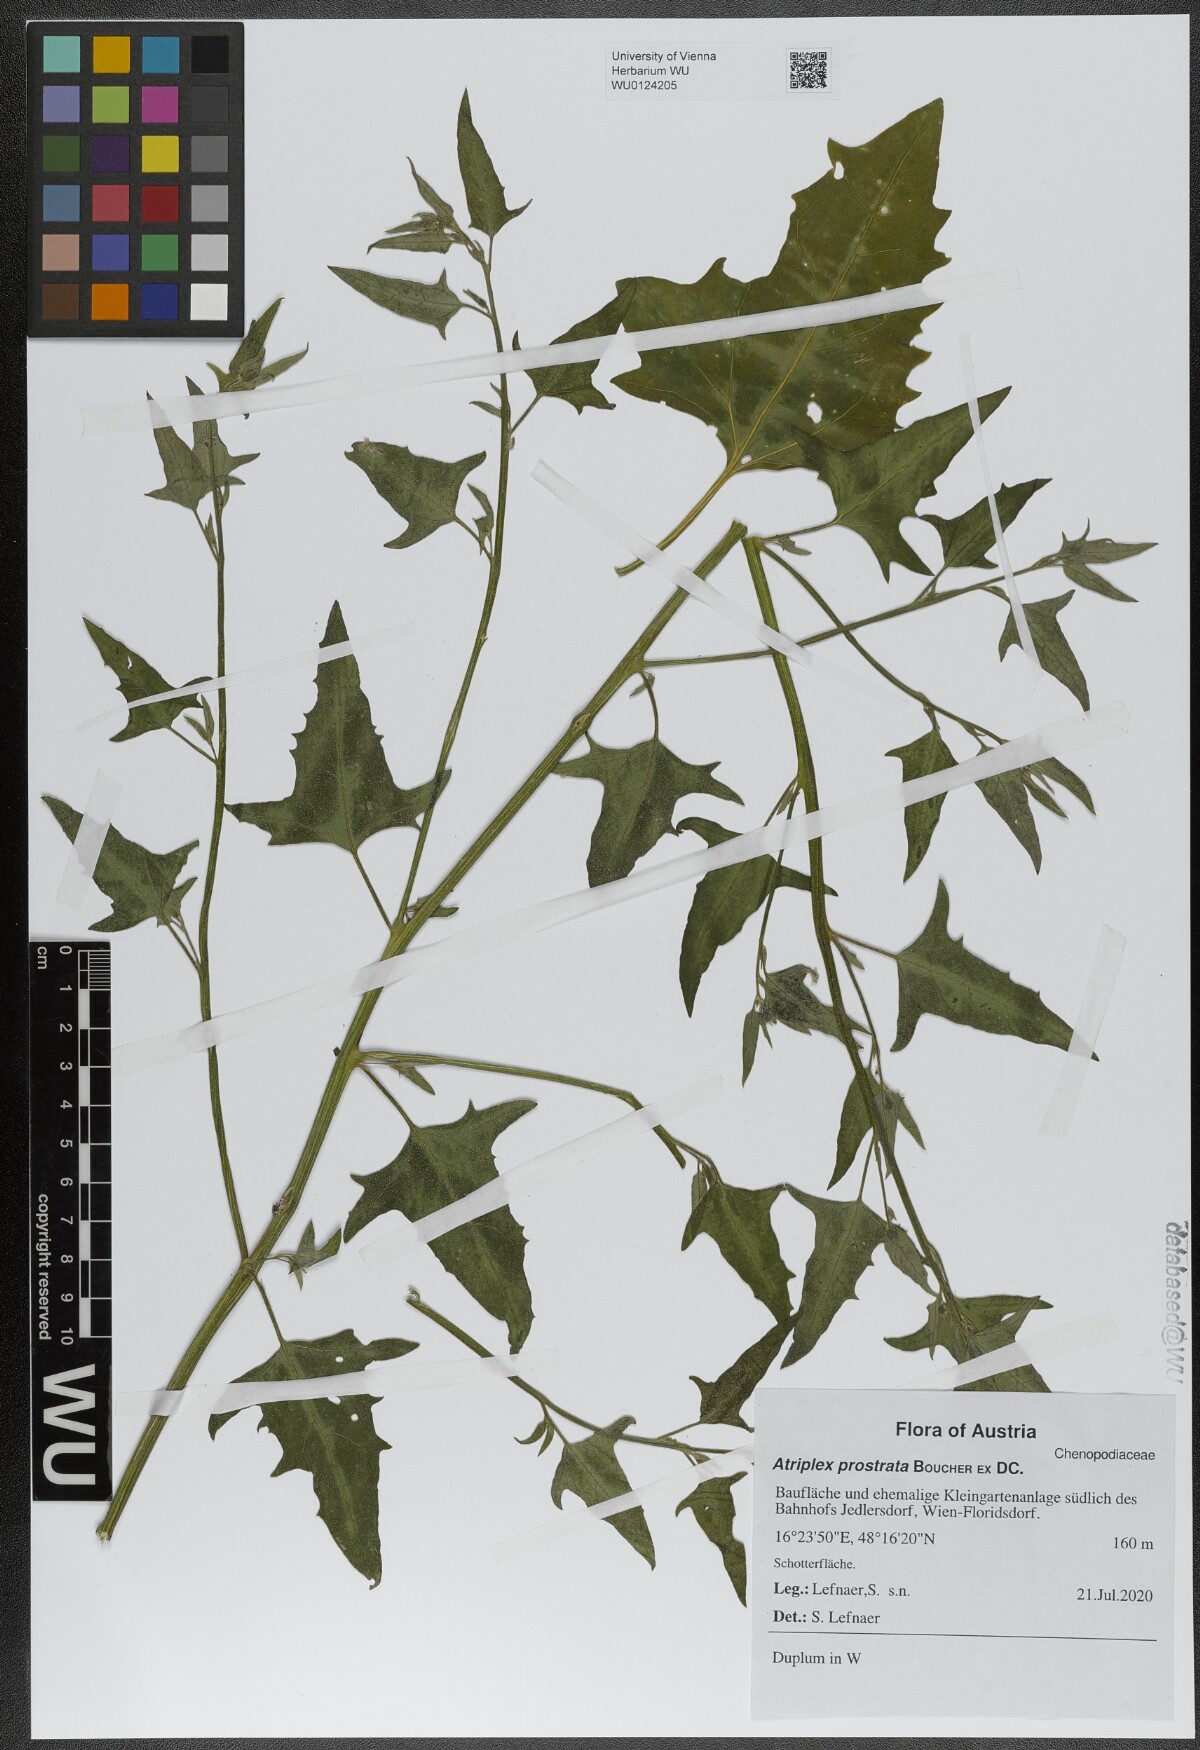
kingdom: Plantae
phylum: Tracheophyta
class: Magnoliopsida
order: Caryophyllales
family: Amaranthaceae
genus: Atriplex
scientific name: Atriplex prostrata
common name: Spear-leaved orache
